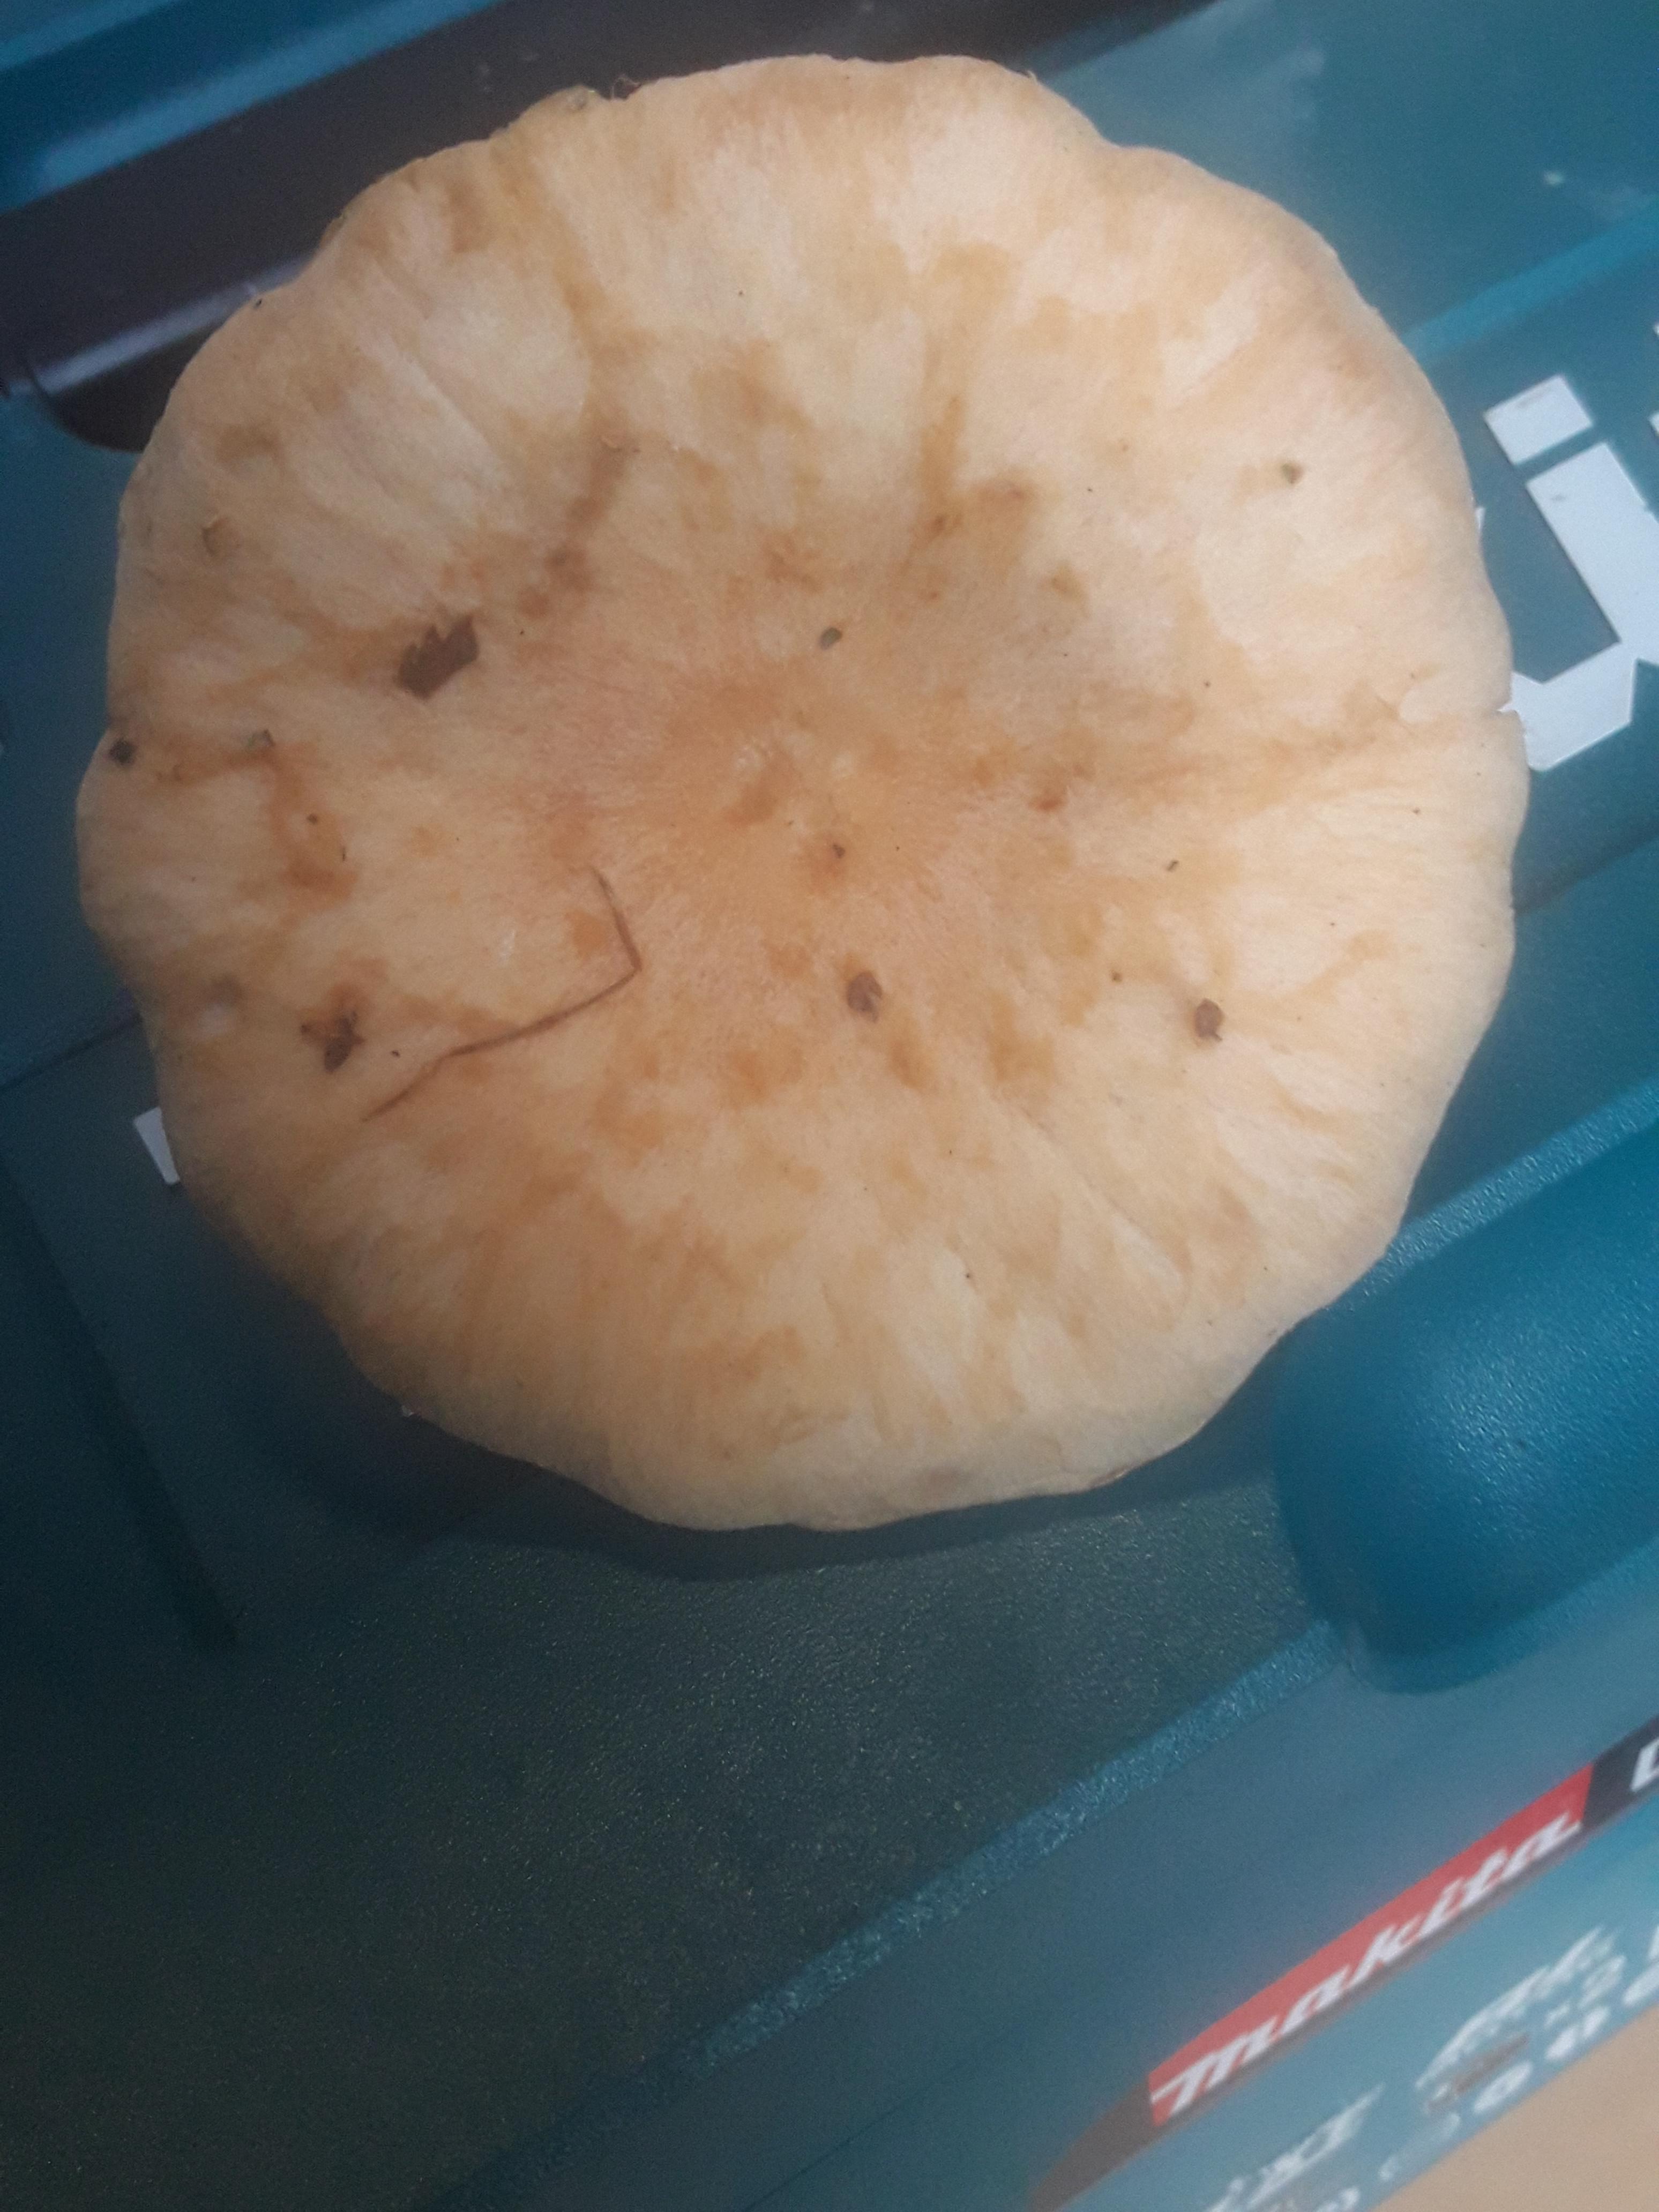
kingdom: Fungi
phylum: Basidiomycota
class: Agaricomycetes
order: Agaricales
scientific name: Agaricales
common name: champignonordenen
